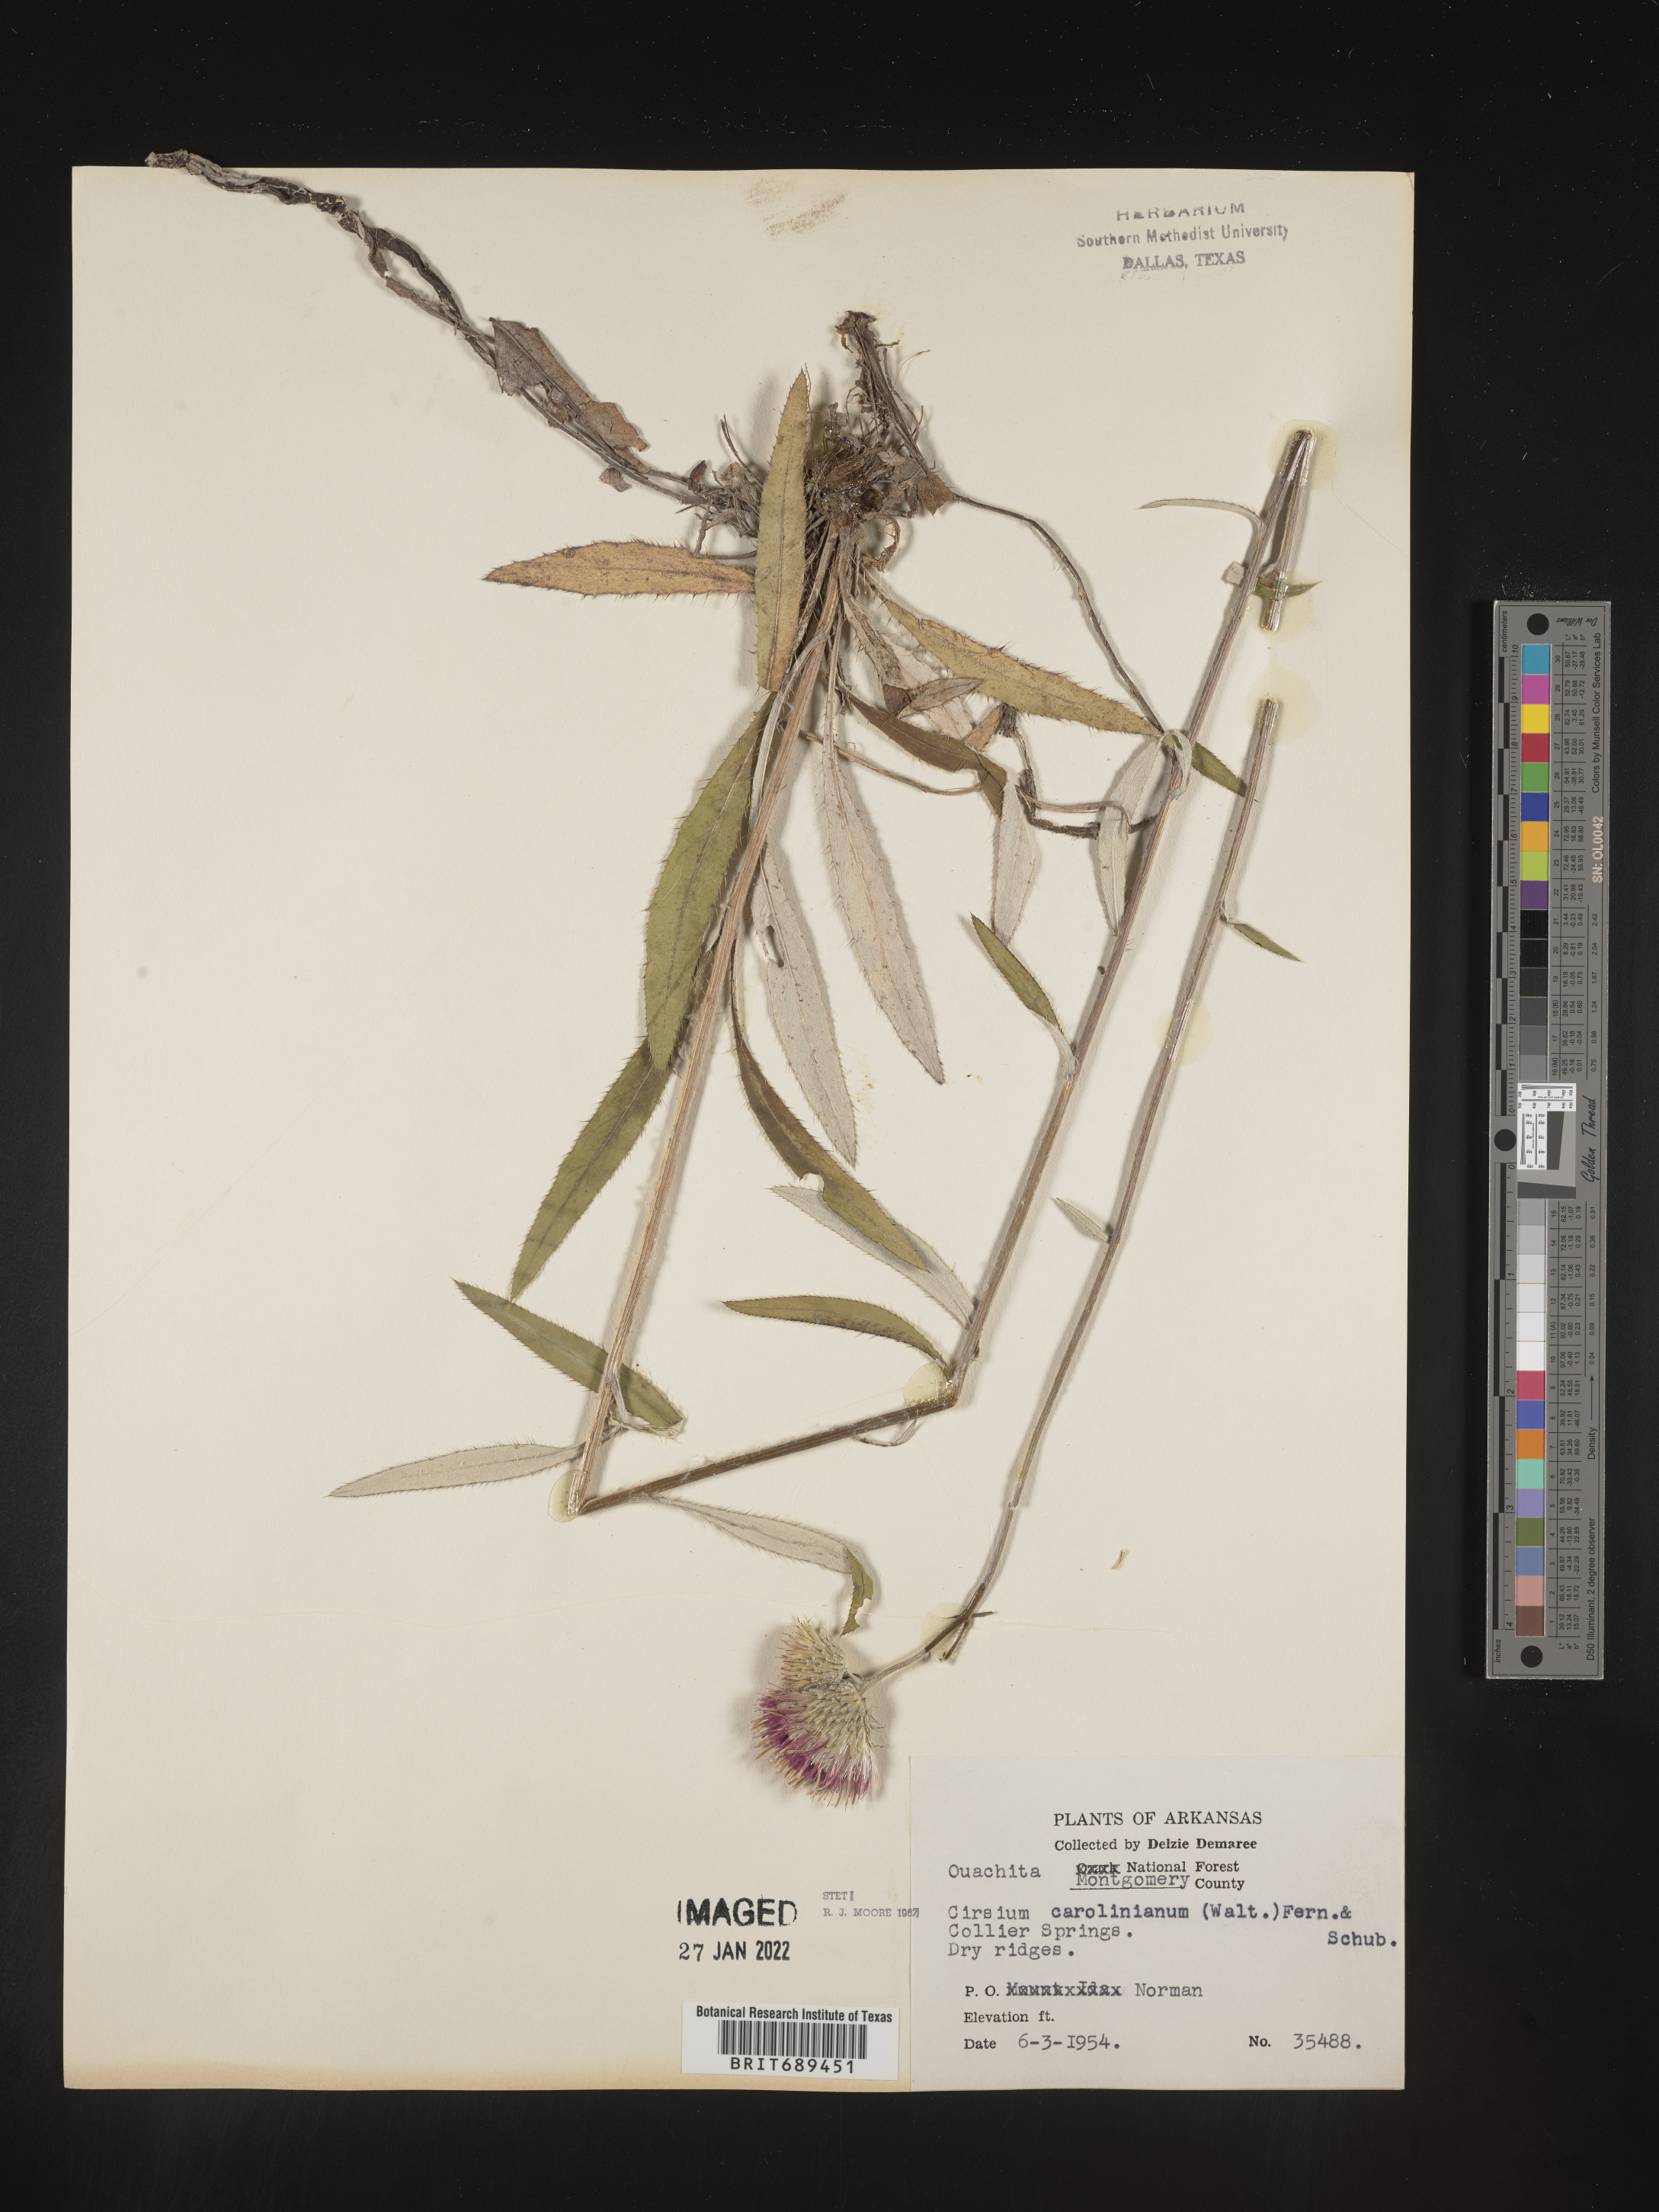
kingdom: Plantae
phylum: Tracheophyta
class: Magnoliopsida
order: Asterales
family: Asteraceae
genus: Cirsium
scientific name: Cirsium carolinianum
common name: Carolina thistle
